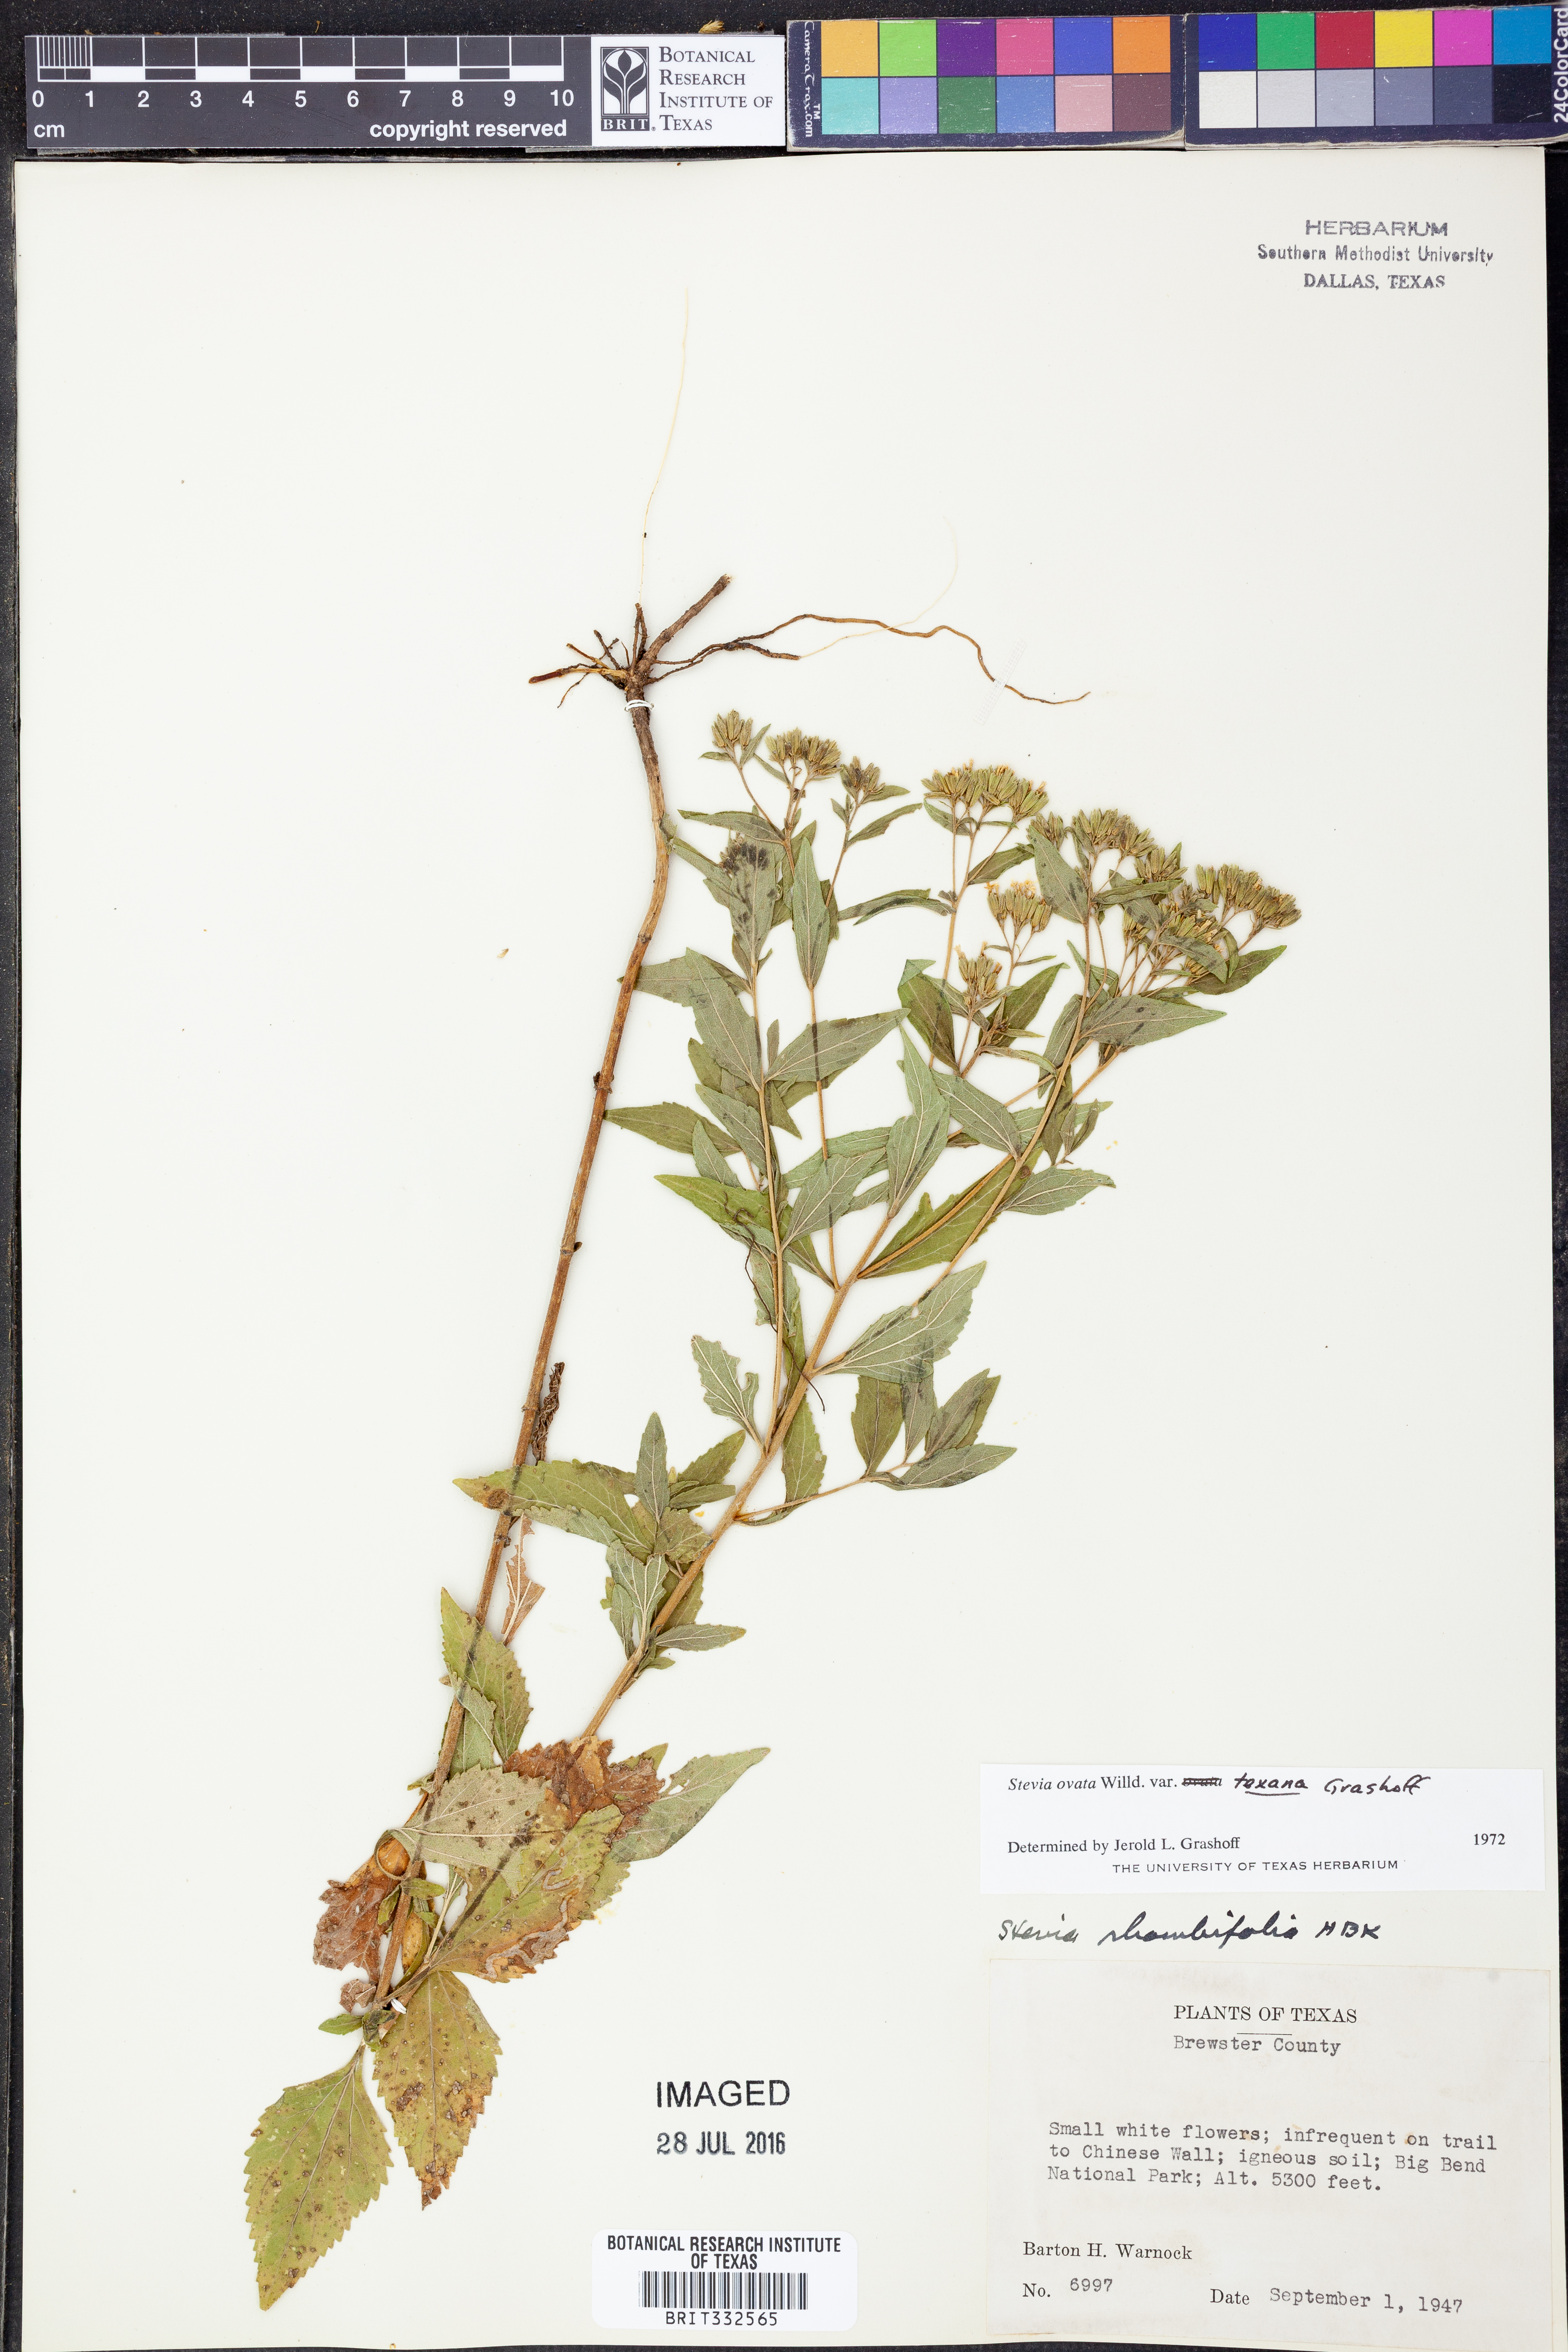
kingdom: Plantae
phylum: Tracheophyta
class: Magnoliopsida
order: Asterales
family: Asteraceae
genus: Stevia
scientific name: Stevia ovata
